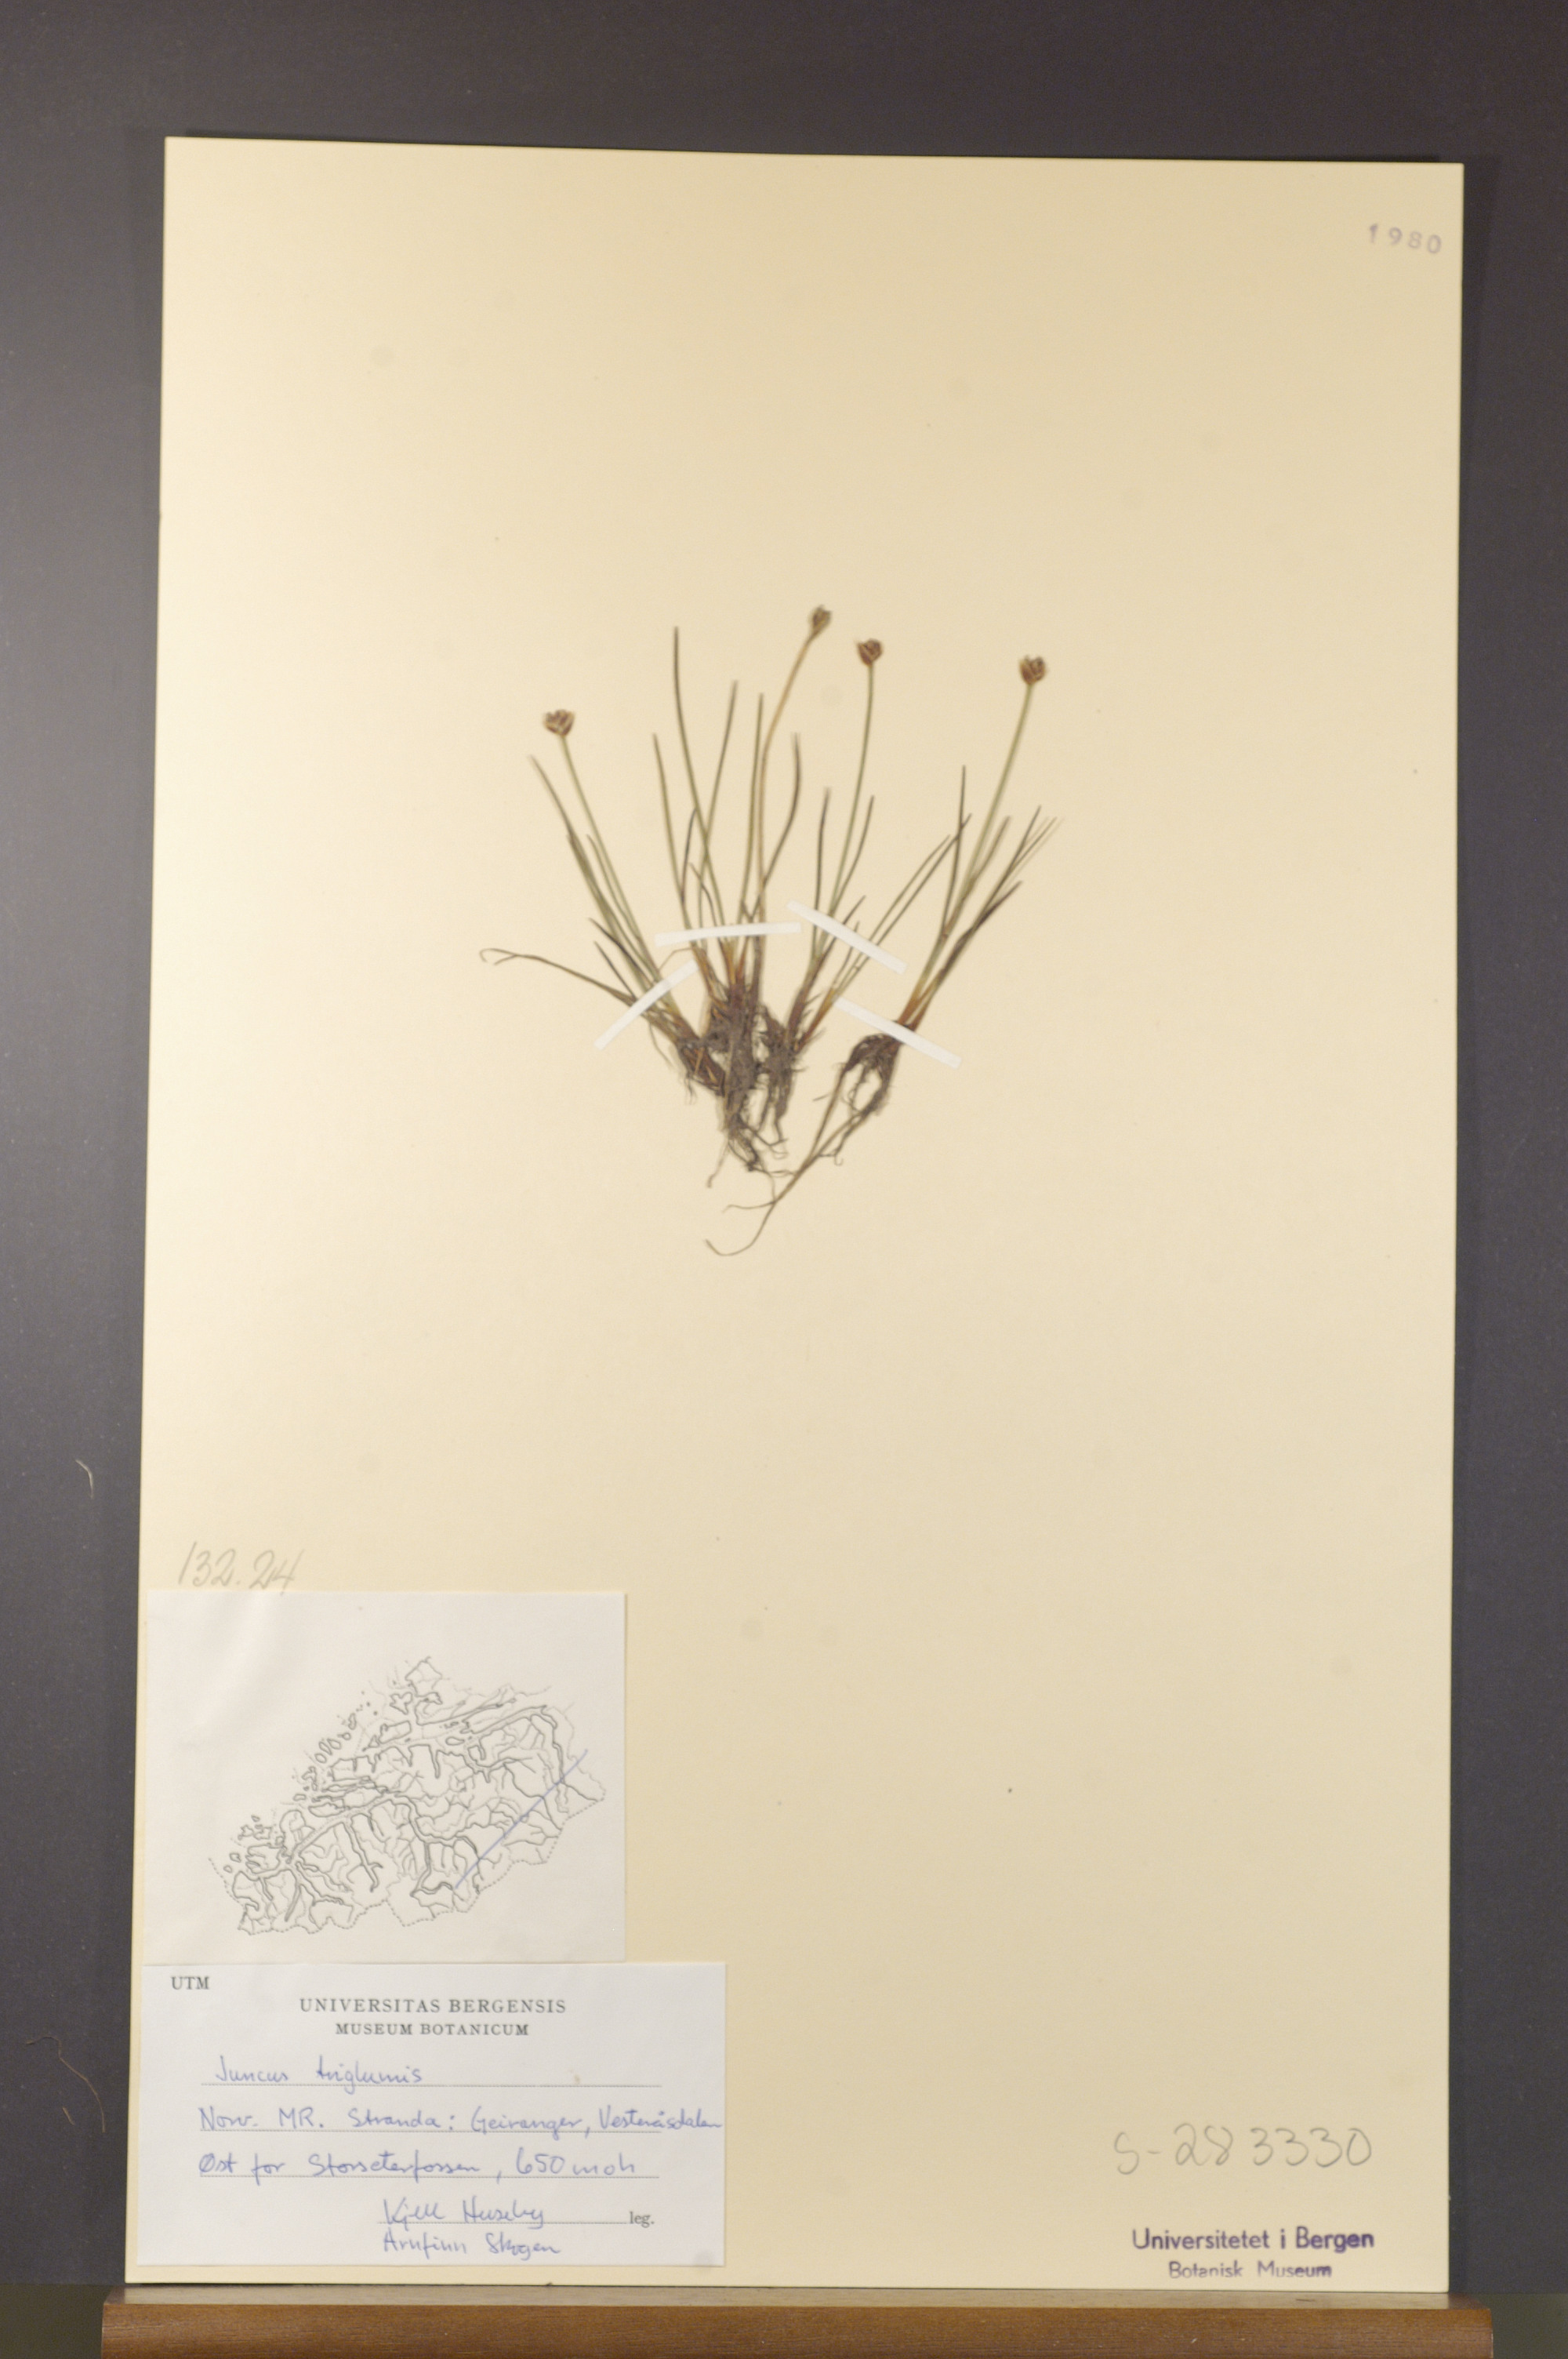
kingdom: Plantae
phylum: Tracheophyta
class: Liliopsida
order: Poales
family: Juncaceae
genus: Juncus
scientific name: Juncus triglumis
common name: Three-flowered rush
